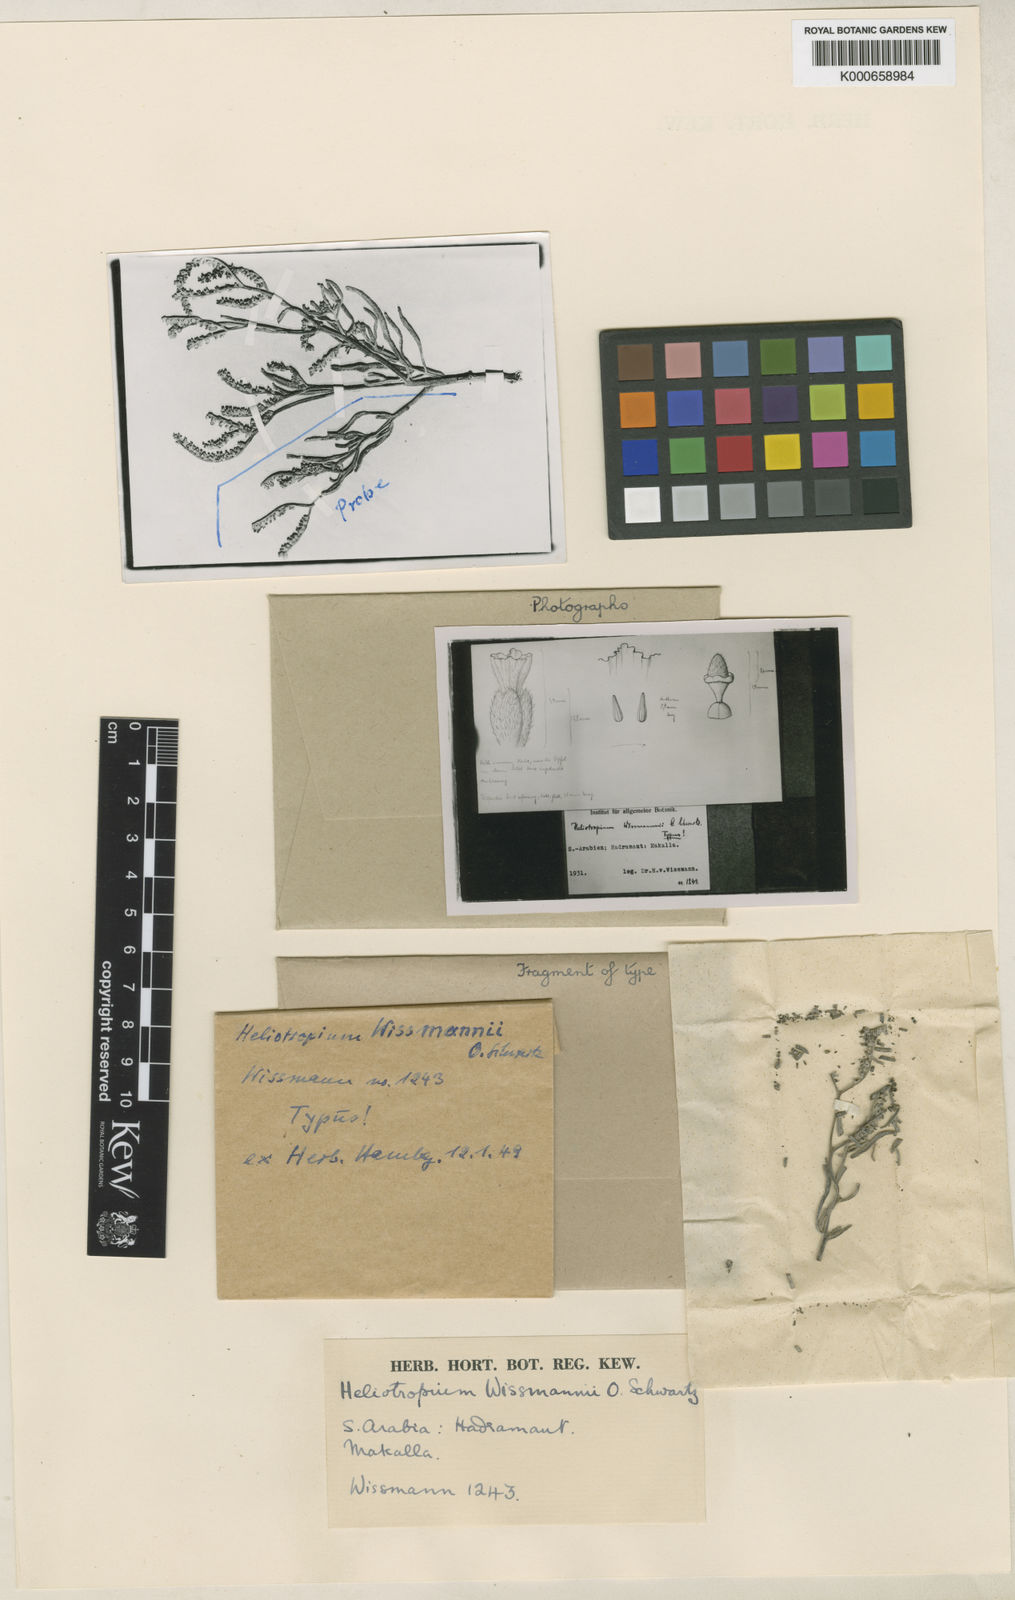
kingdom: Plantae
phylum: Tracheophyta
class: Magnoliopsida
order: Boraginales
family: Heliotropiaceae
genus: Heliotropium
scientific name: Heliotropium wissmannii
